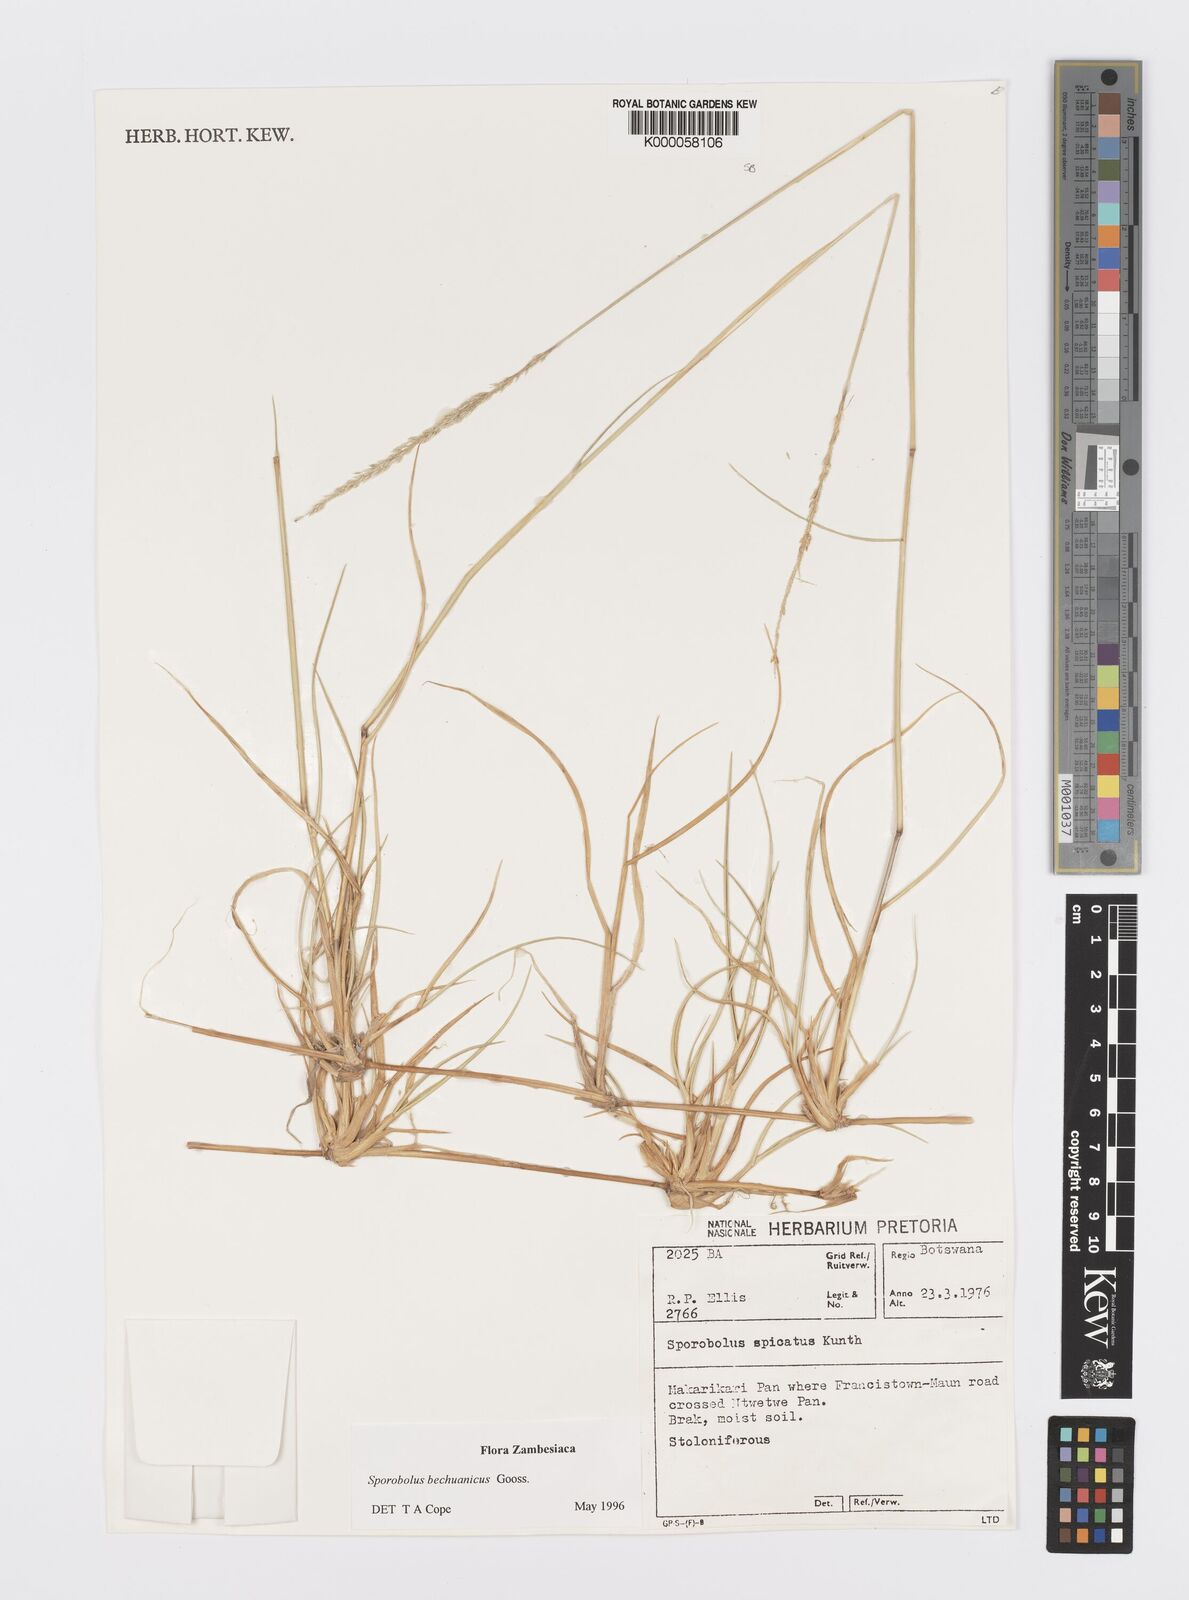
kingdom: Plantae
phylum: Tracheophyta
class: Liliopsida
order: Poales
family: Poaceae
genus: Sporobolus
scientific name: Sporobolus bechuanicus
